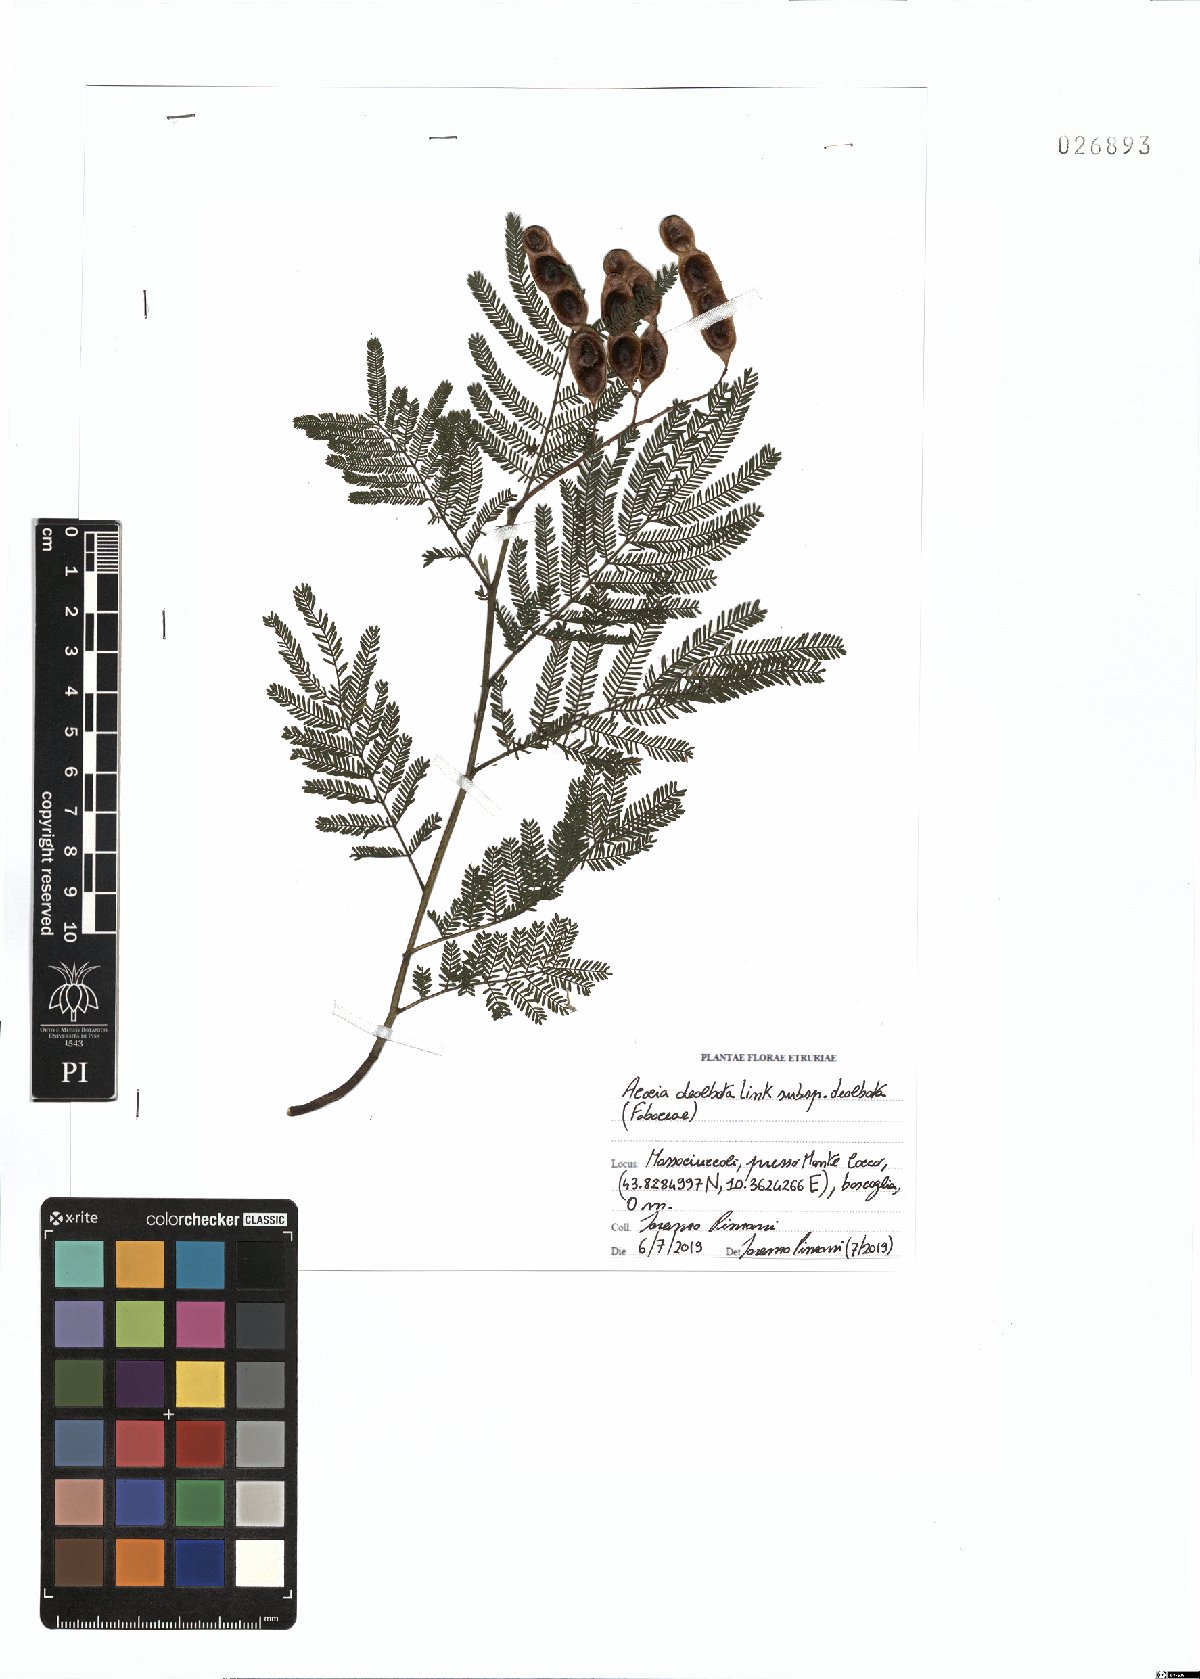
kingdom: Plantae
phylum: Tracheophyta
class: Magnoliopsida
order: Fabales
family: Fabaceae
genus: Acacia
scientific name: Acacia dealbata
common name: Silver wattle
